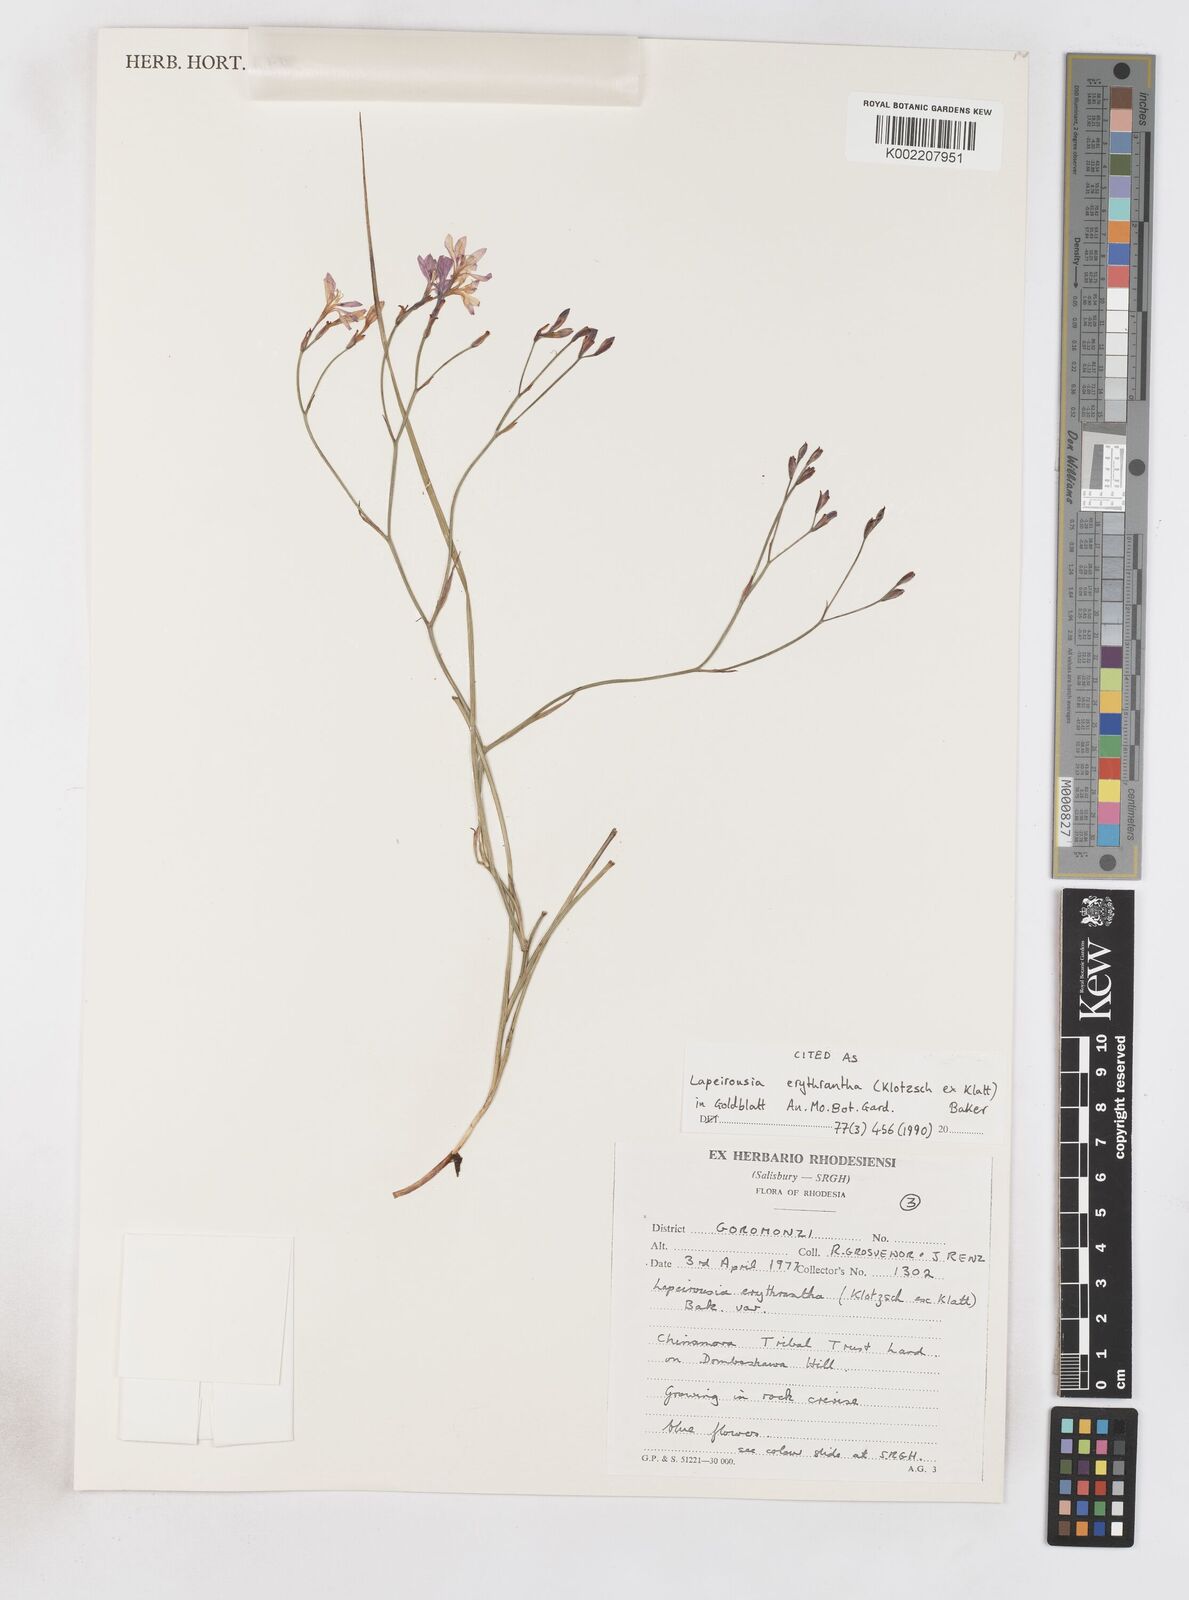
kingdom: Plantae
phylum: Tracheophyta
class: Liliopsida
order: Asparagales
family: Iridaceae
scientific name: Iridaceae
